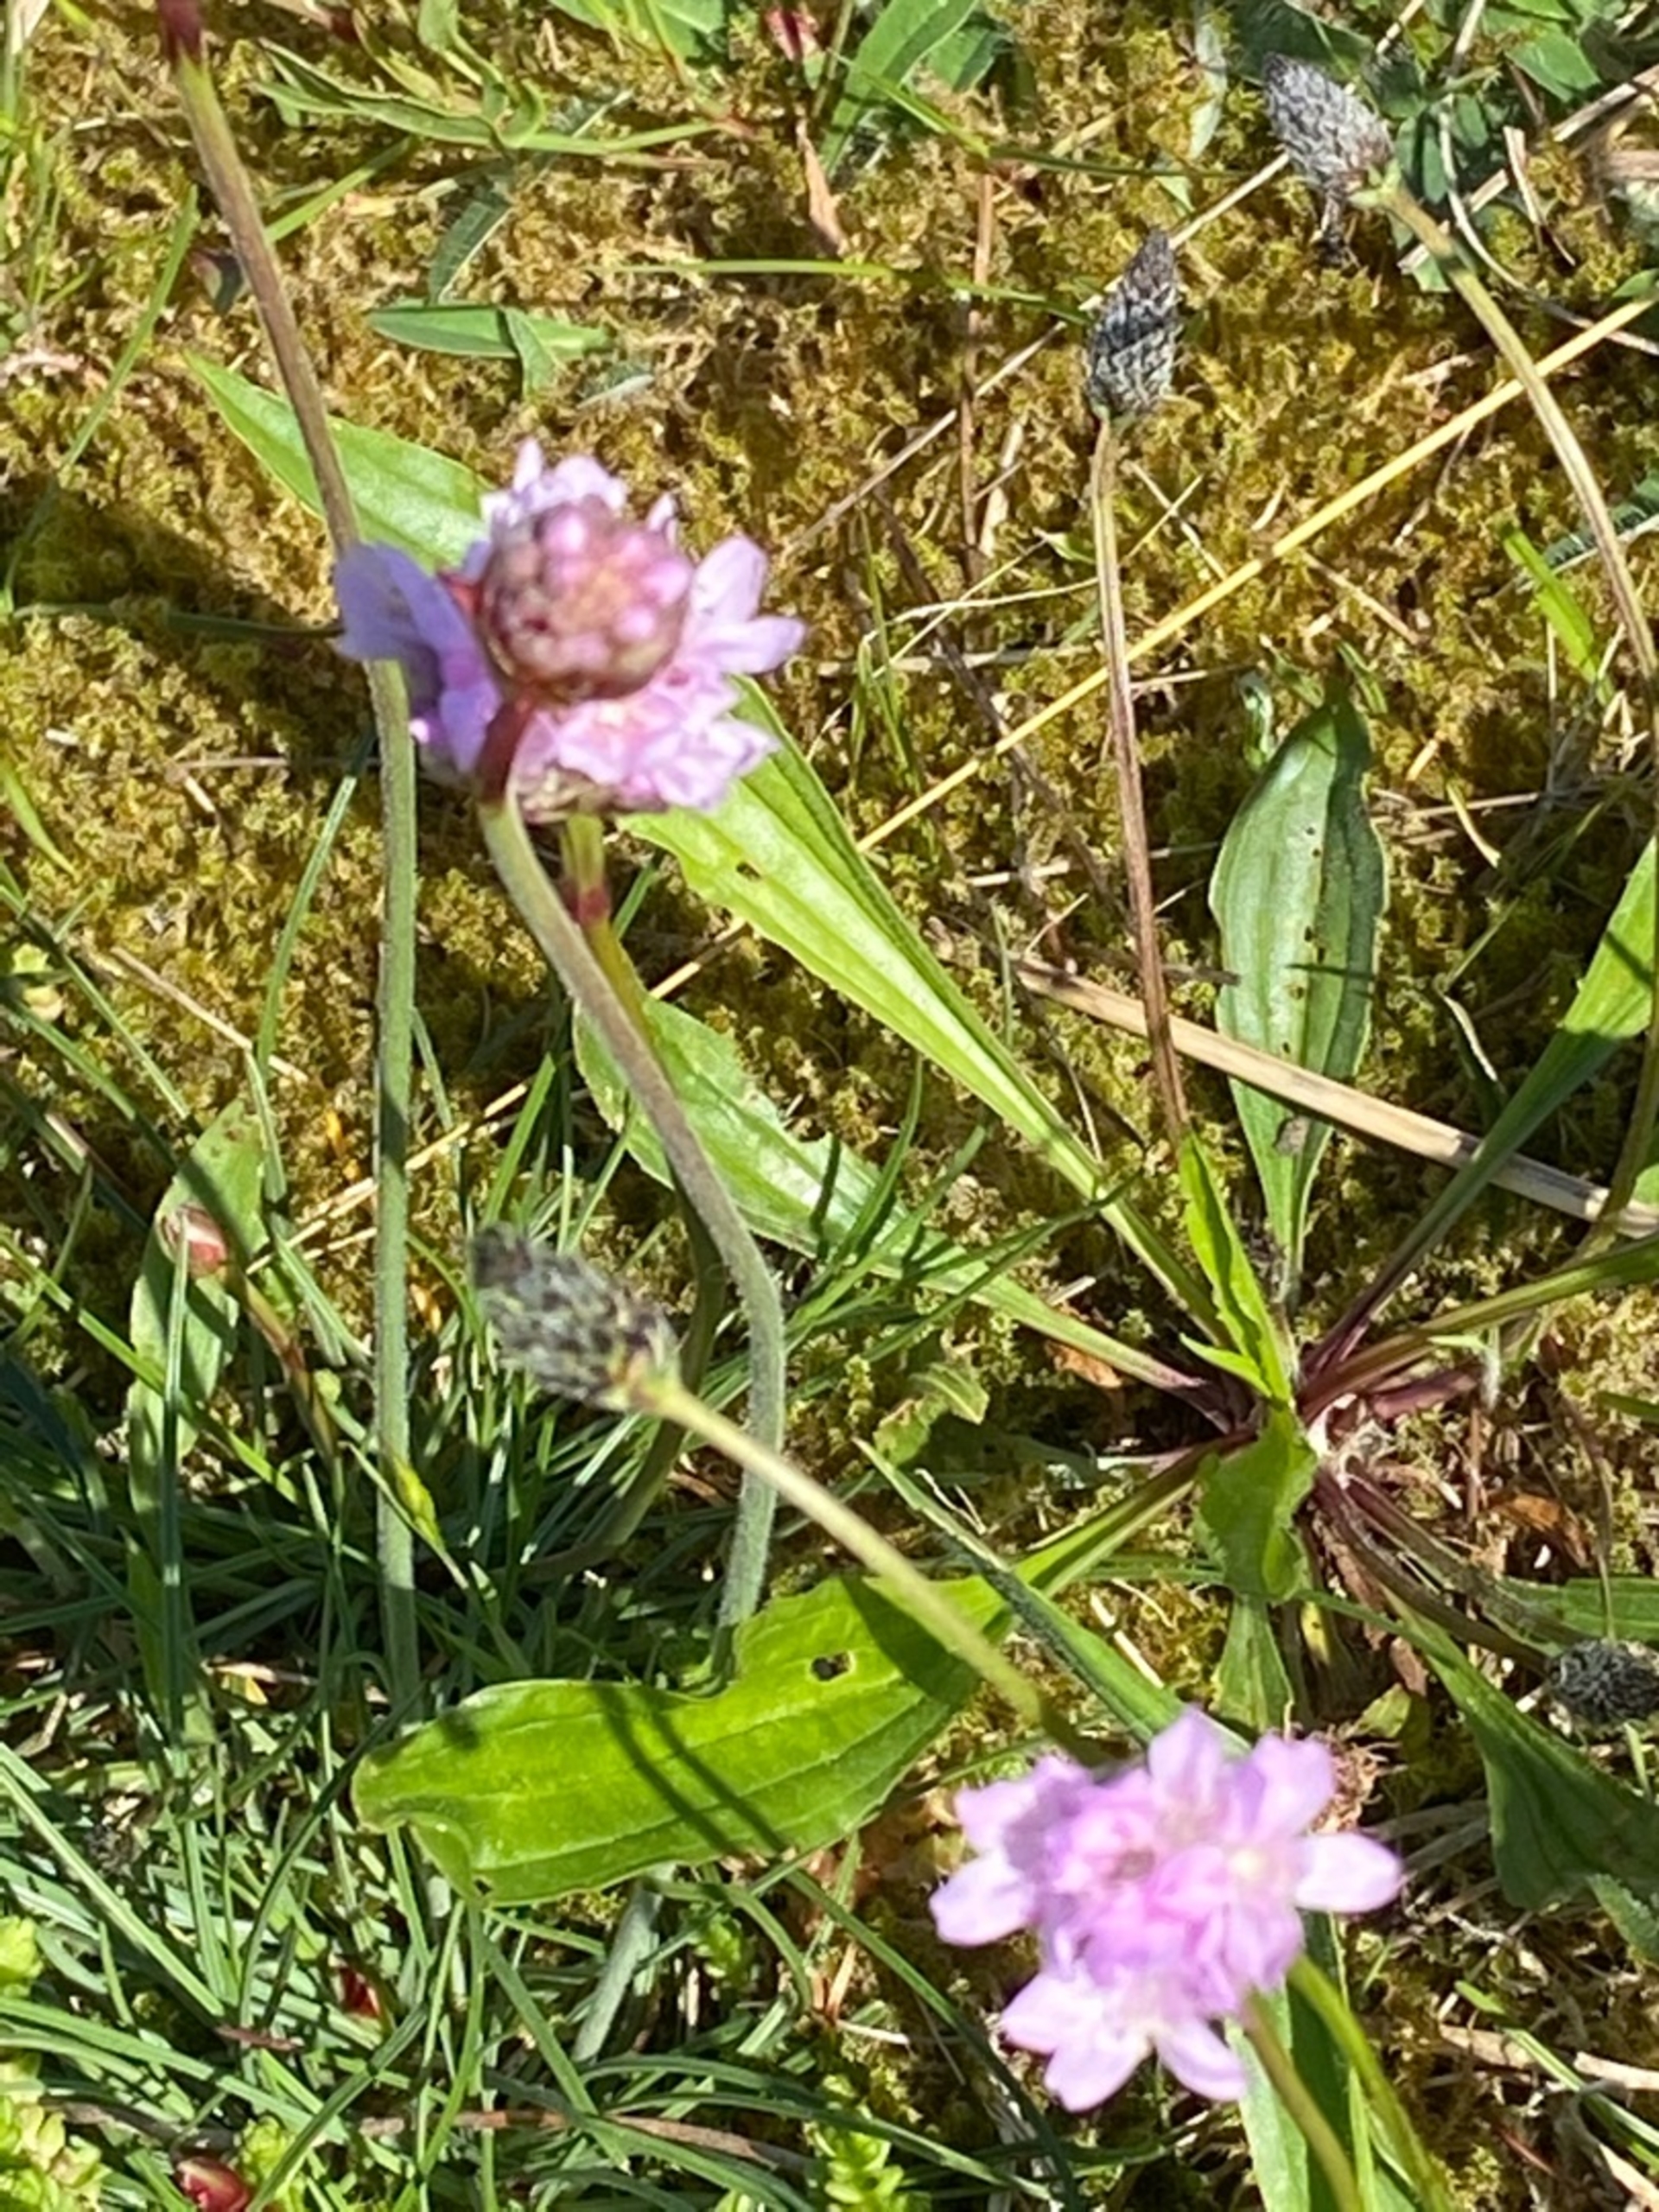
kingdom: Plantae
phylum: Tracheophyta
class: Magnoliopsida
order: Caryophyllales
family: Plumbaginaceae
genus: Armeria
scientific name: Armeria maritima
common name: Engelskgræs
